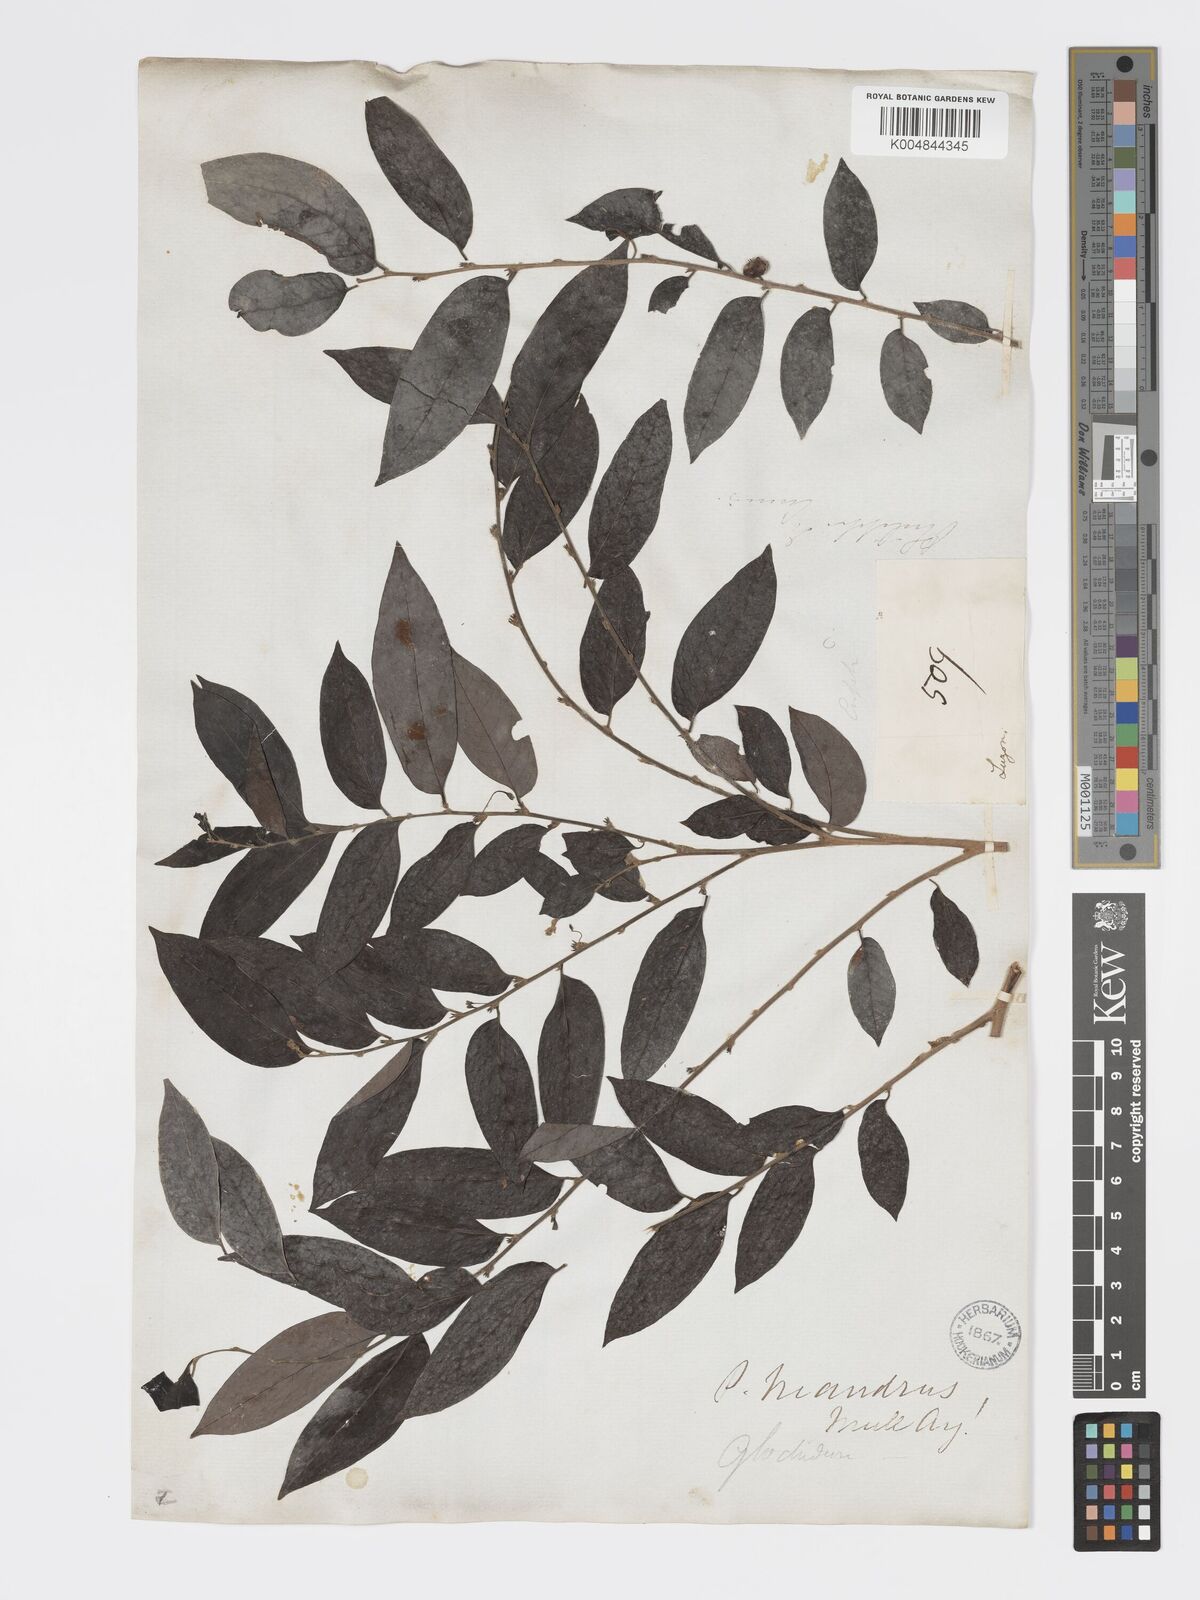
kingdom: Plantae
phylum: Tracheophyta
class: Magnoliopsida
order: Malpighiales
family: Phyllanthaceae
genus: Glochidion
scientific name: Glochidion triandrum
